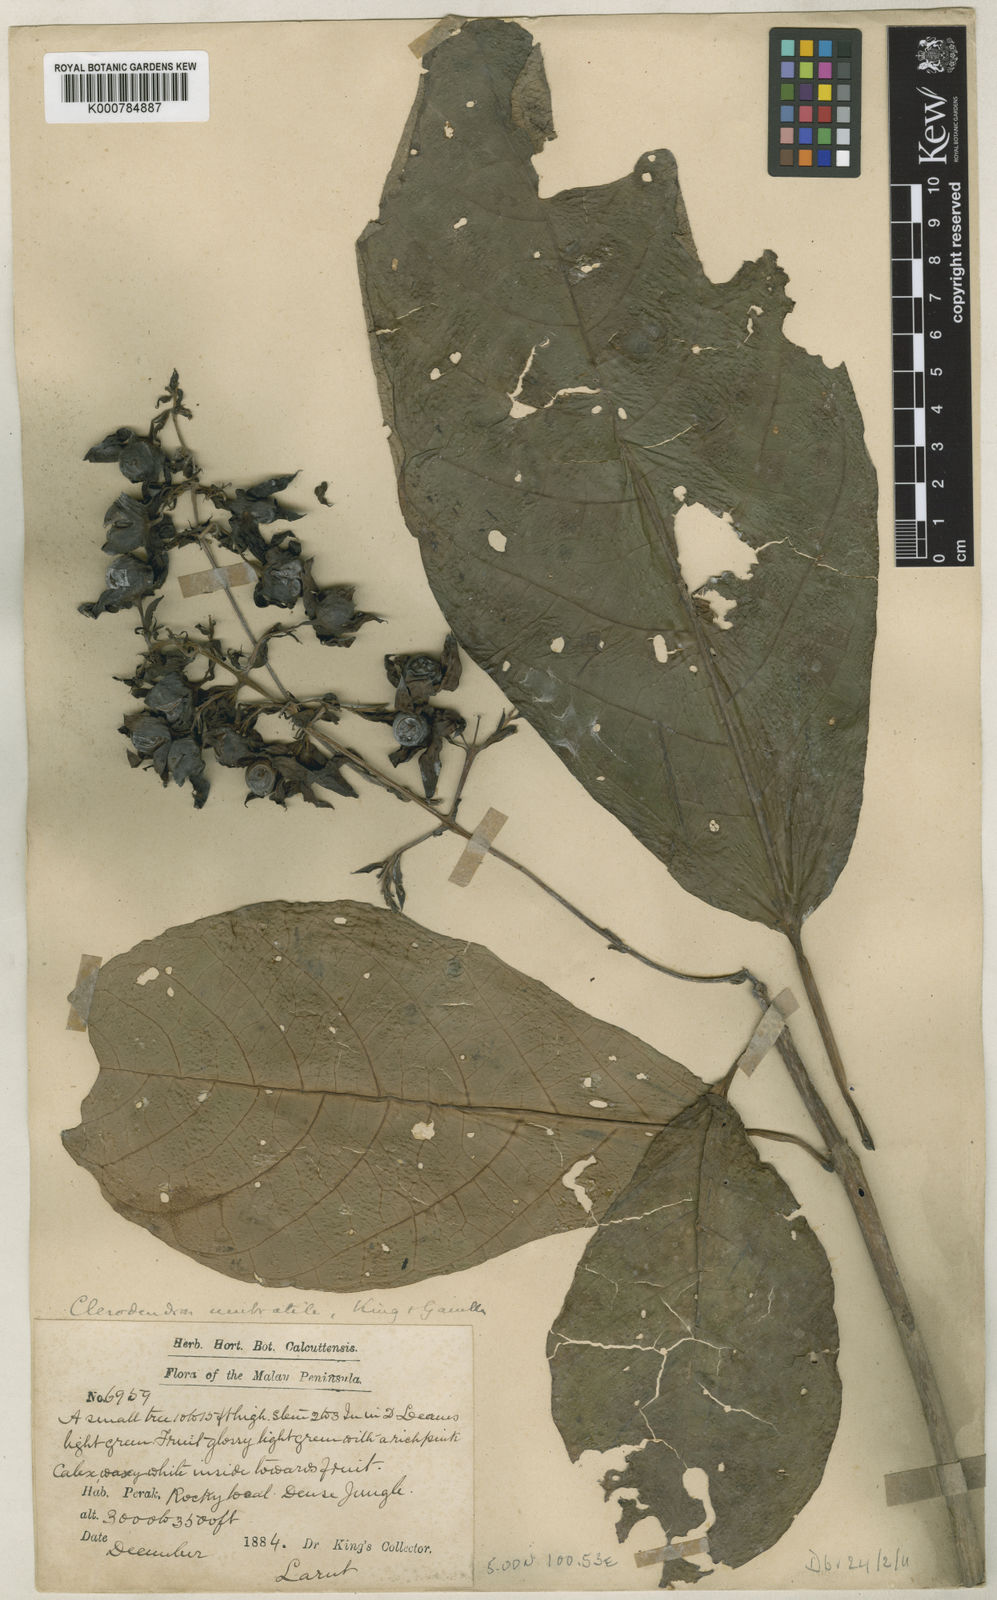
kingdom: Plantae
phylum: Tracheophyta
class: Magnoliopsida
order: Lamiales
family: Lamiaceae
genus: Clerodendrum
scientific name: Clerodendrum umbratile
